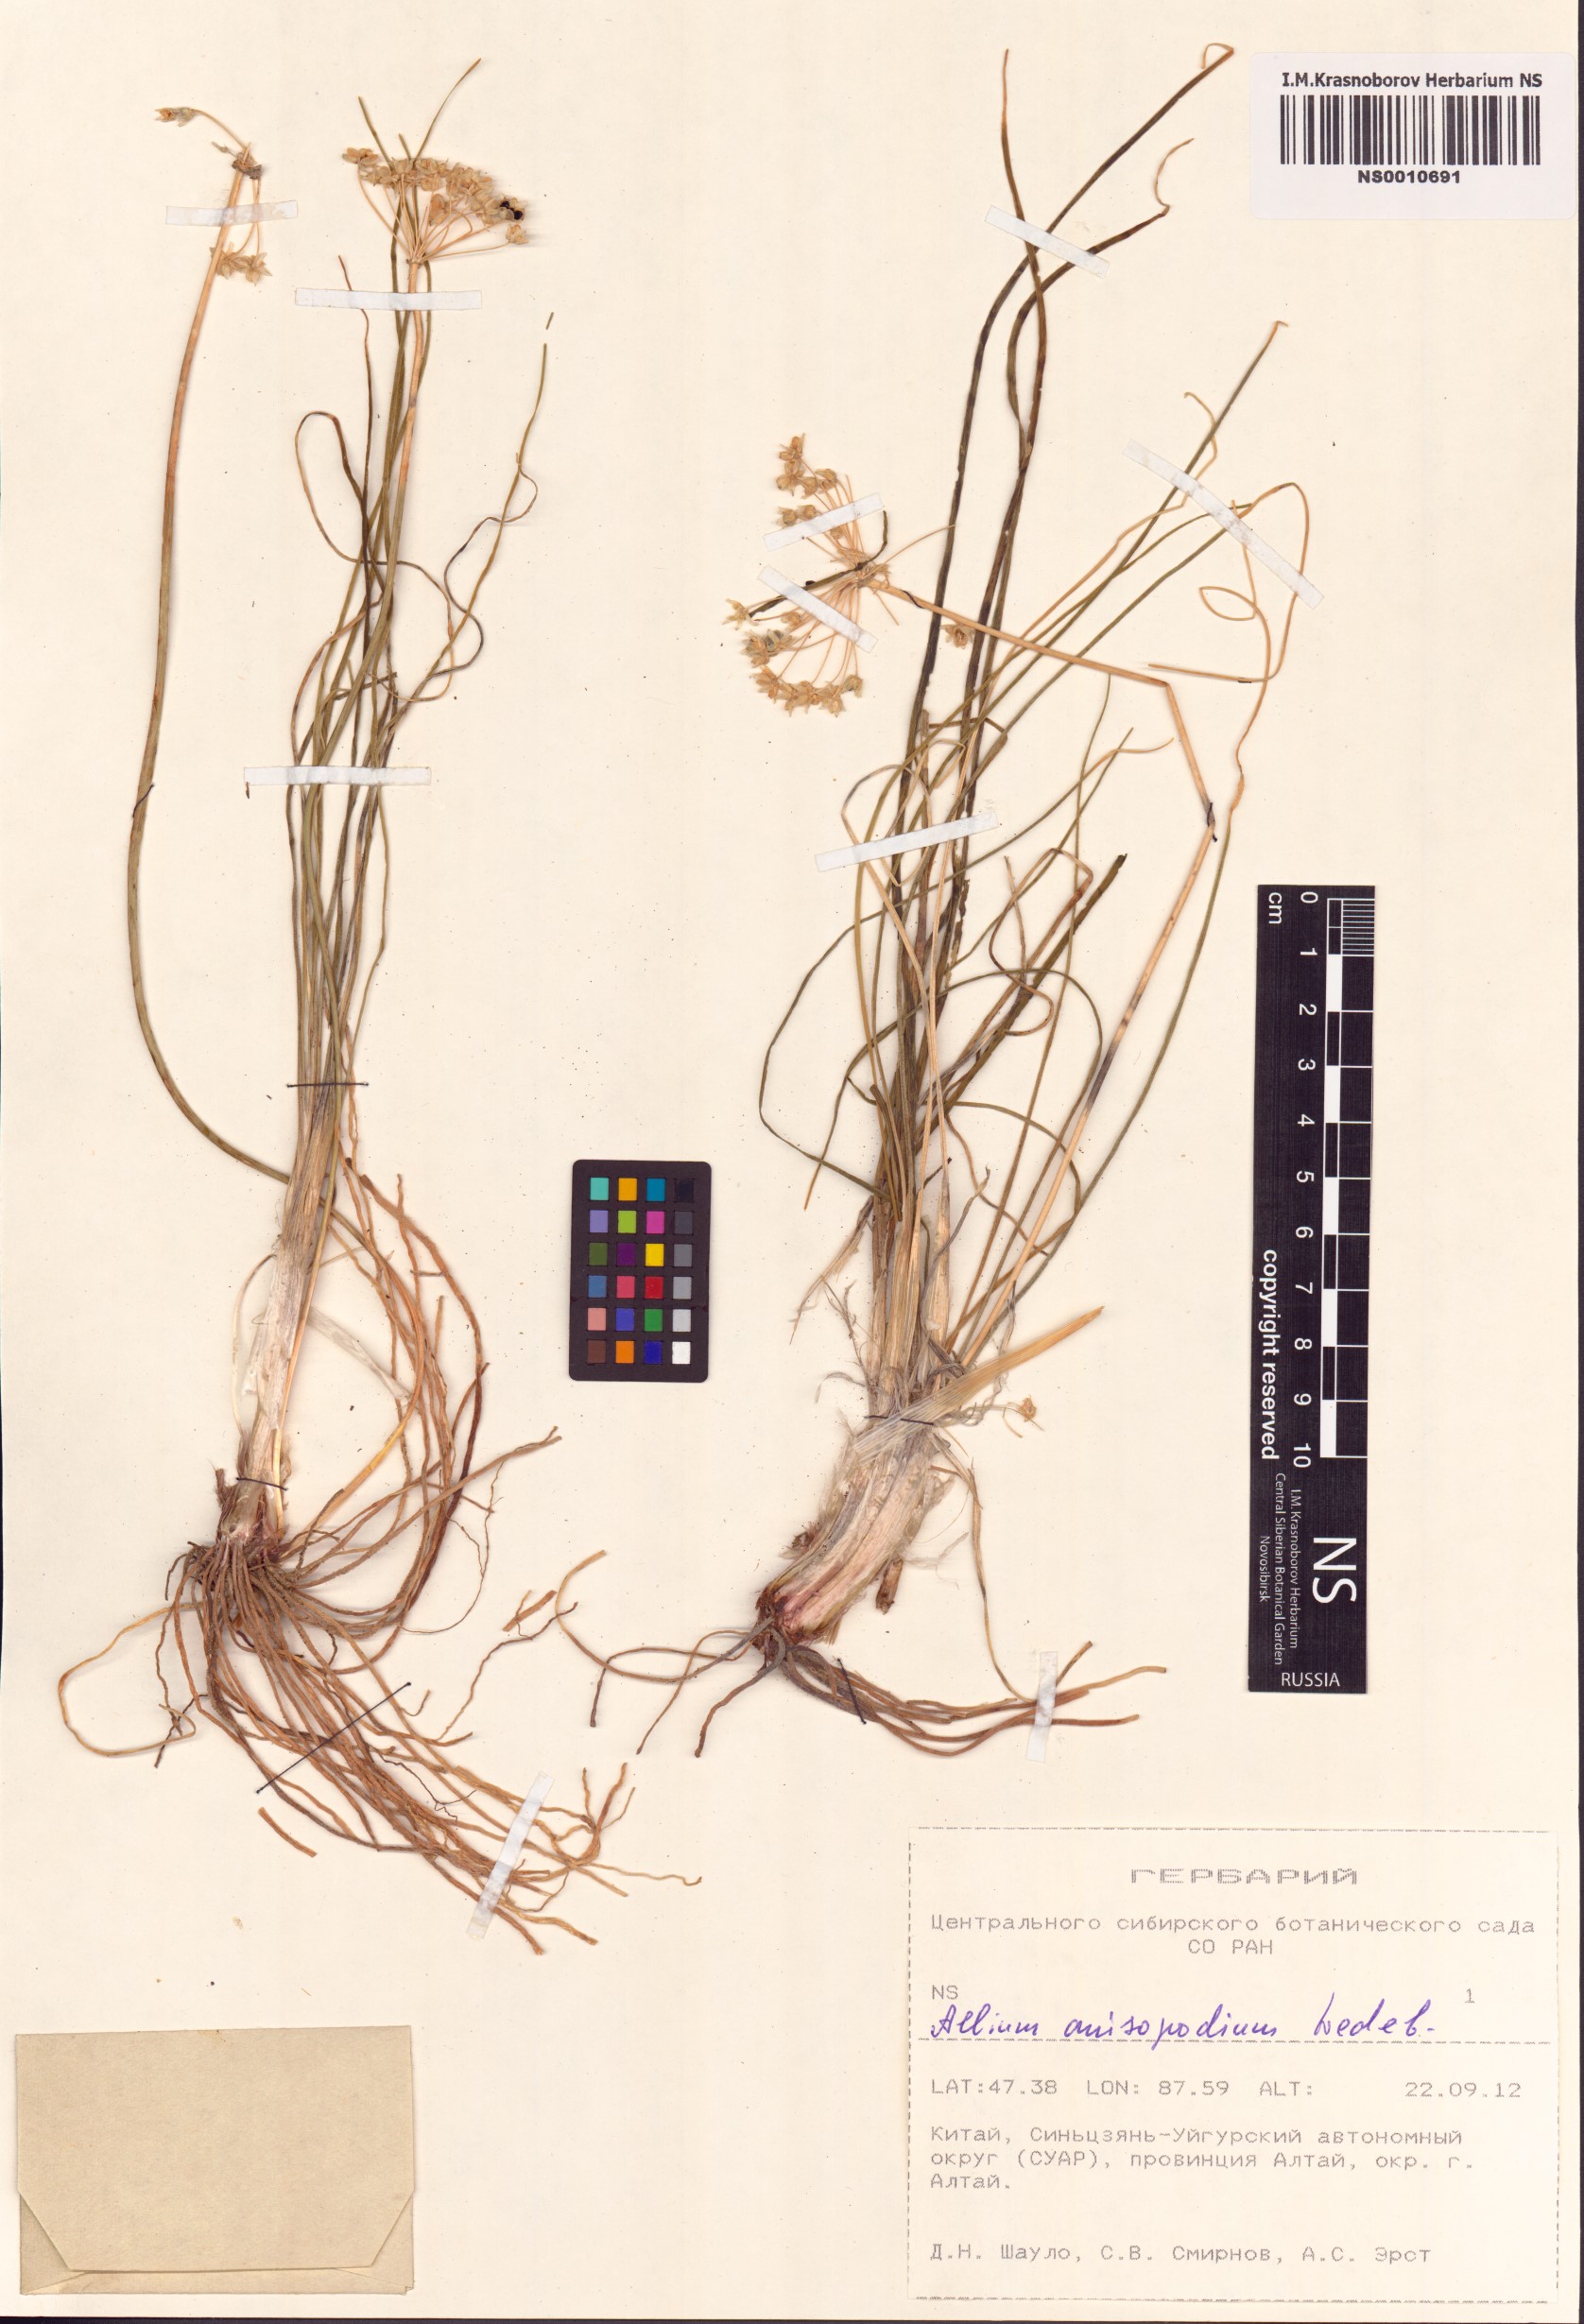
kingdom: Plantae
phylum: Tracheophyta
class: Liliopsida
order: Asparagales
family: Amaryllidaceae
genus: Allium
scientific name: Allium anisopodium
